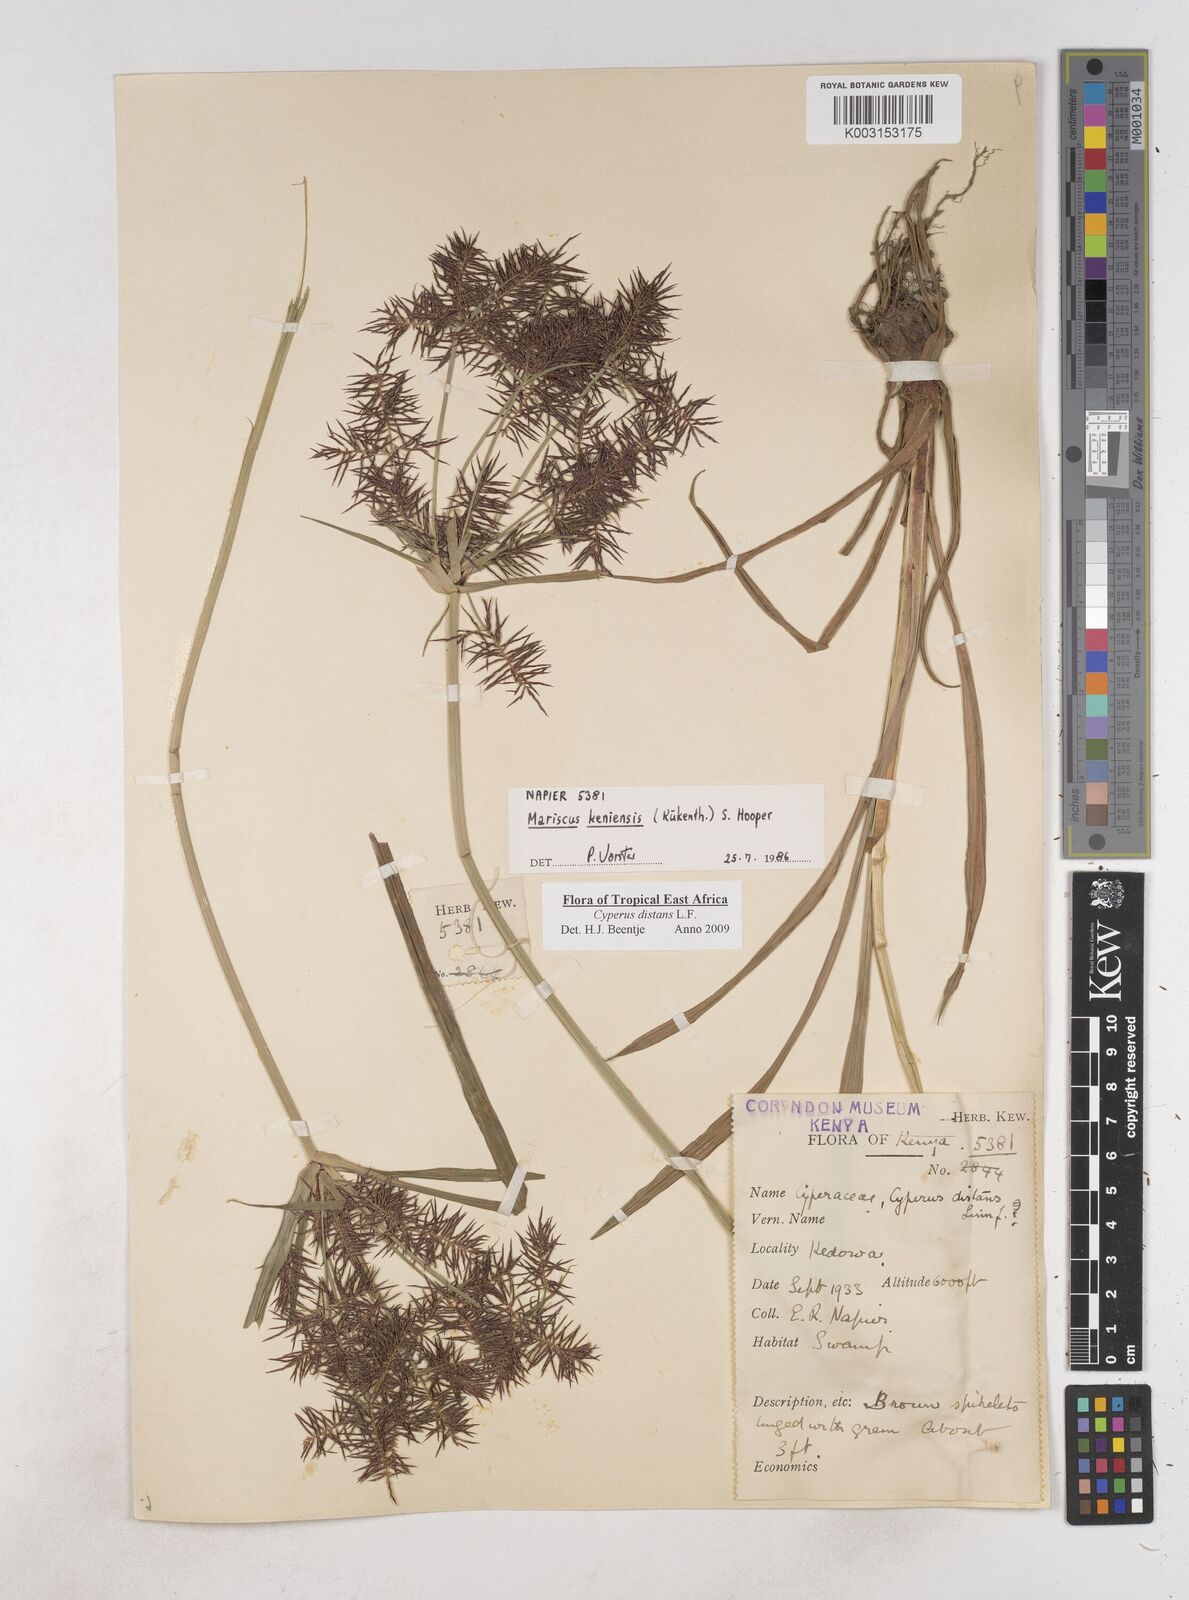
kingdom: Plantae
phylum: Tracheophyta
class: Liliopsida
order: Poales
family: Cyperaceae
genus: Cyperus
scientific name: Cyperus distans
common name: Slender cyperus
